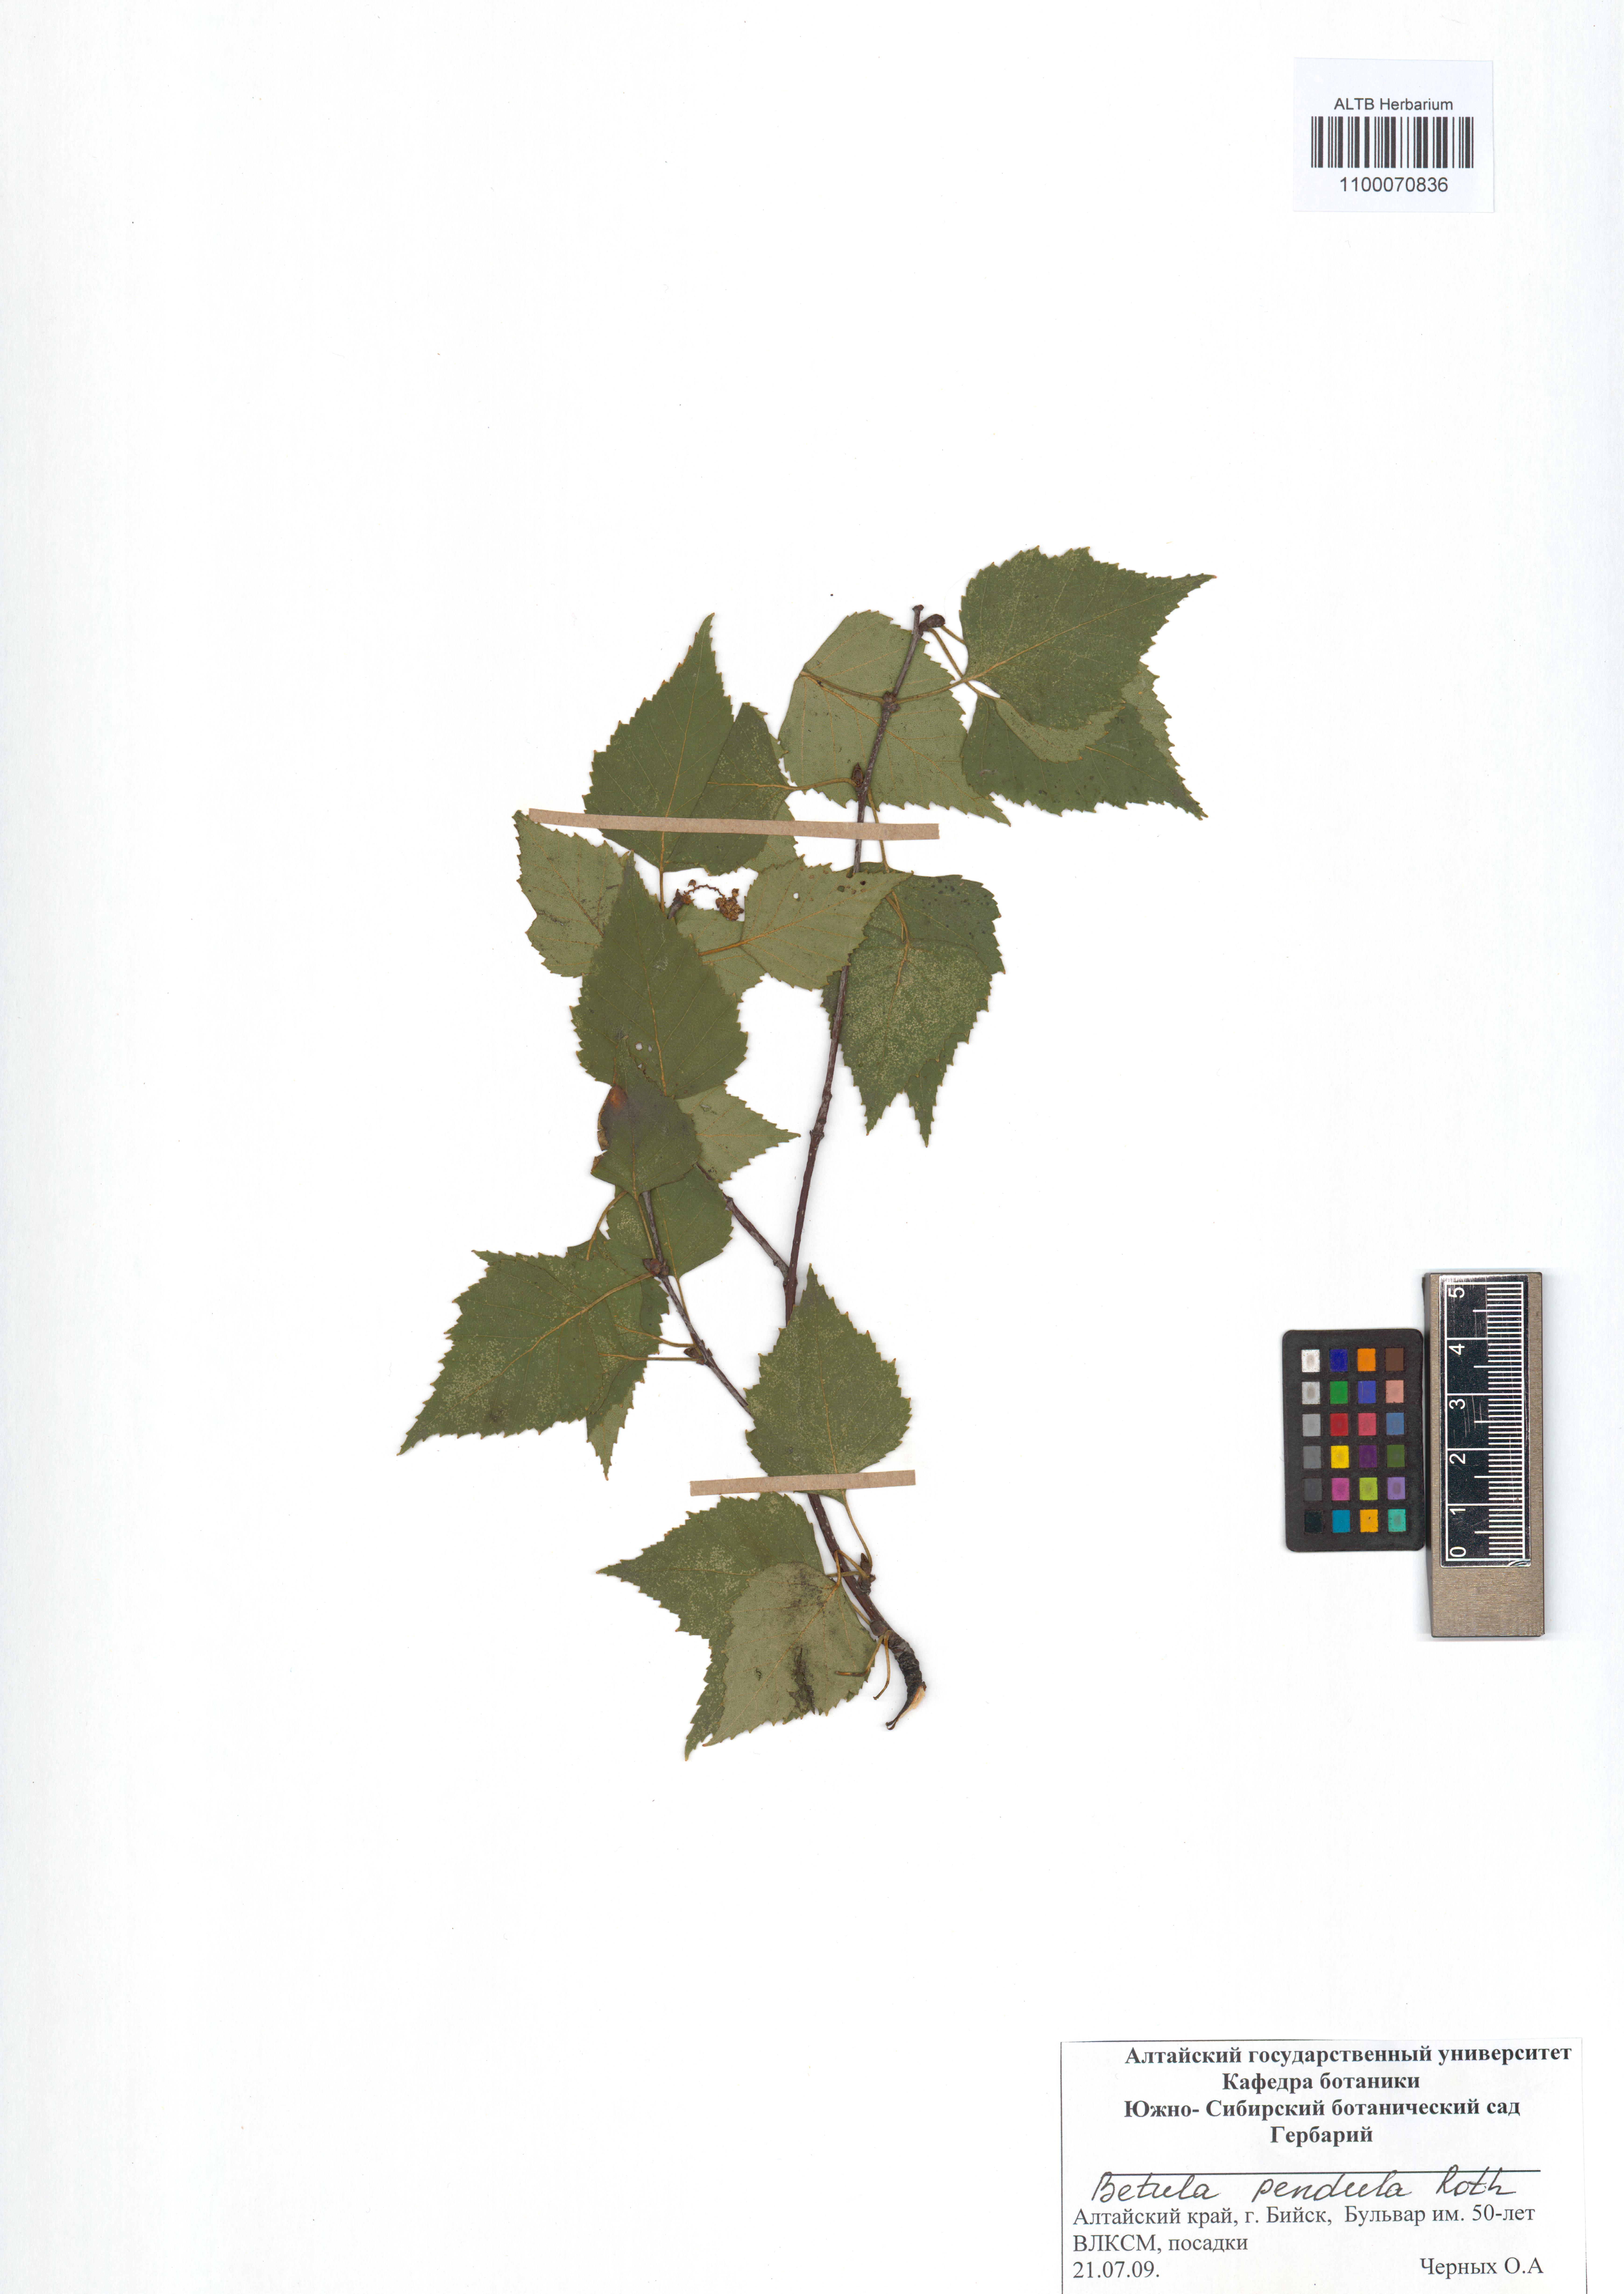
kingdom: Plantae
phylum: Tracheophyta
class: Magnoliopsida
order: Fagales
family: Betulaceae
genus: Betula
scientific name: Betula pendula
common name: Silver birch
